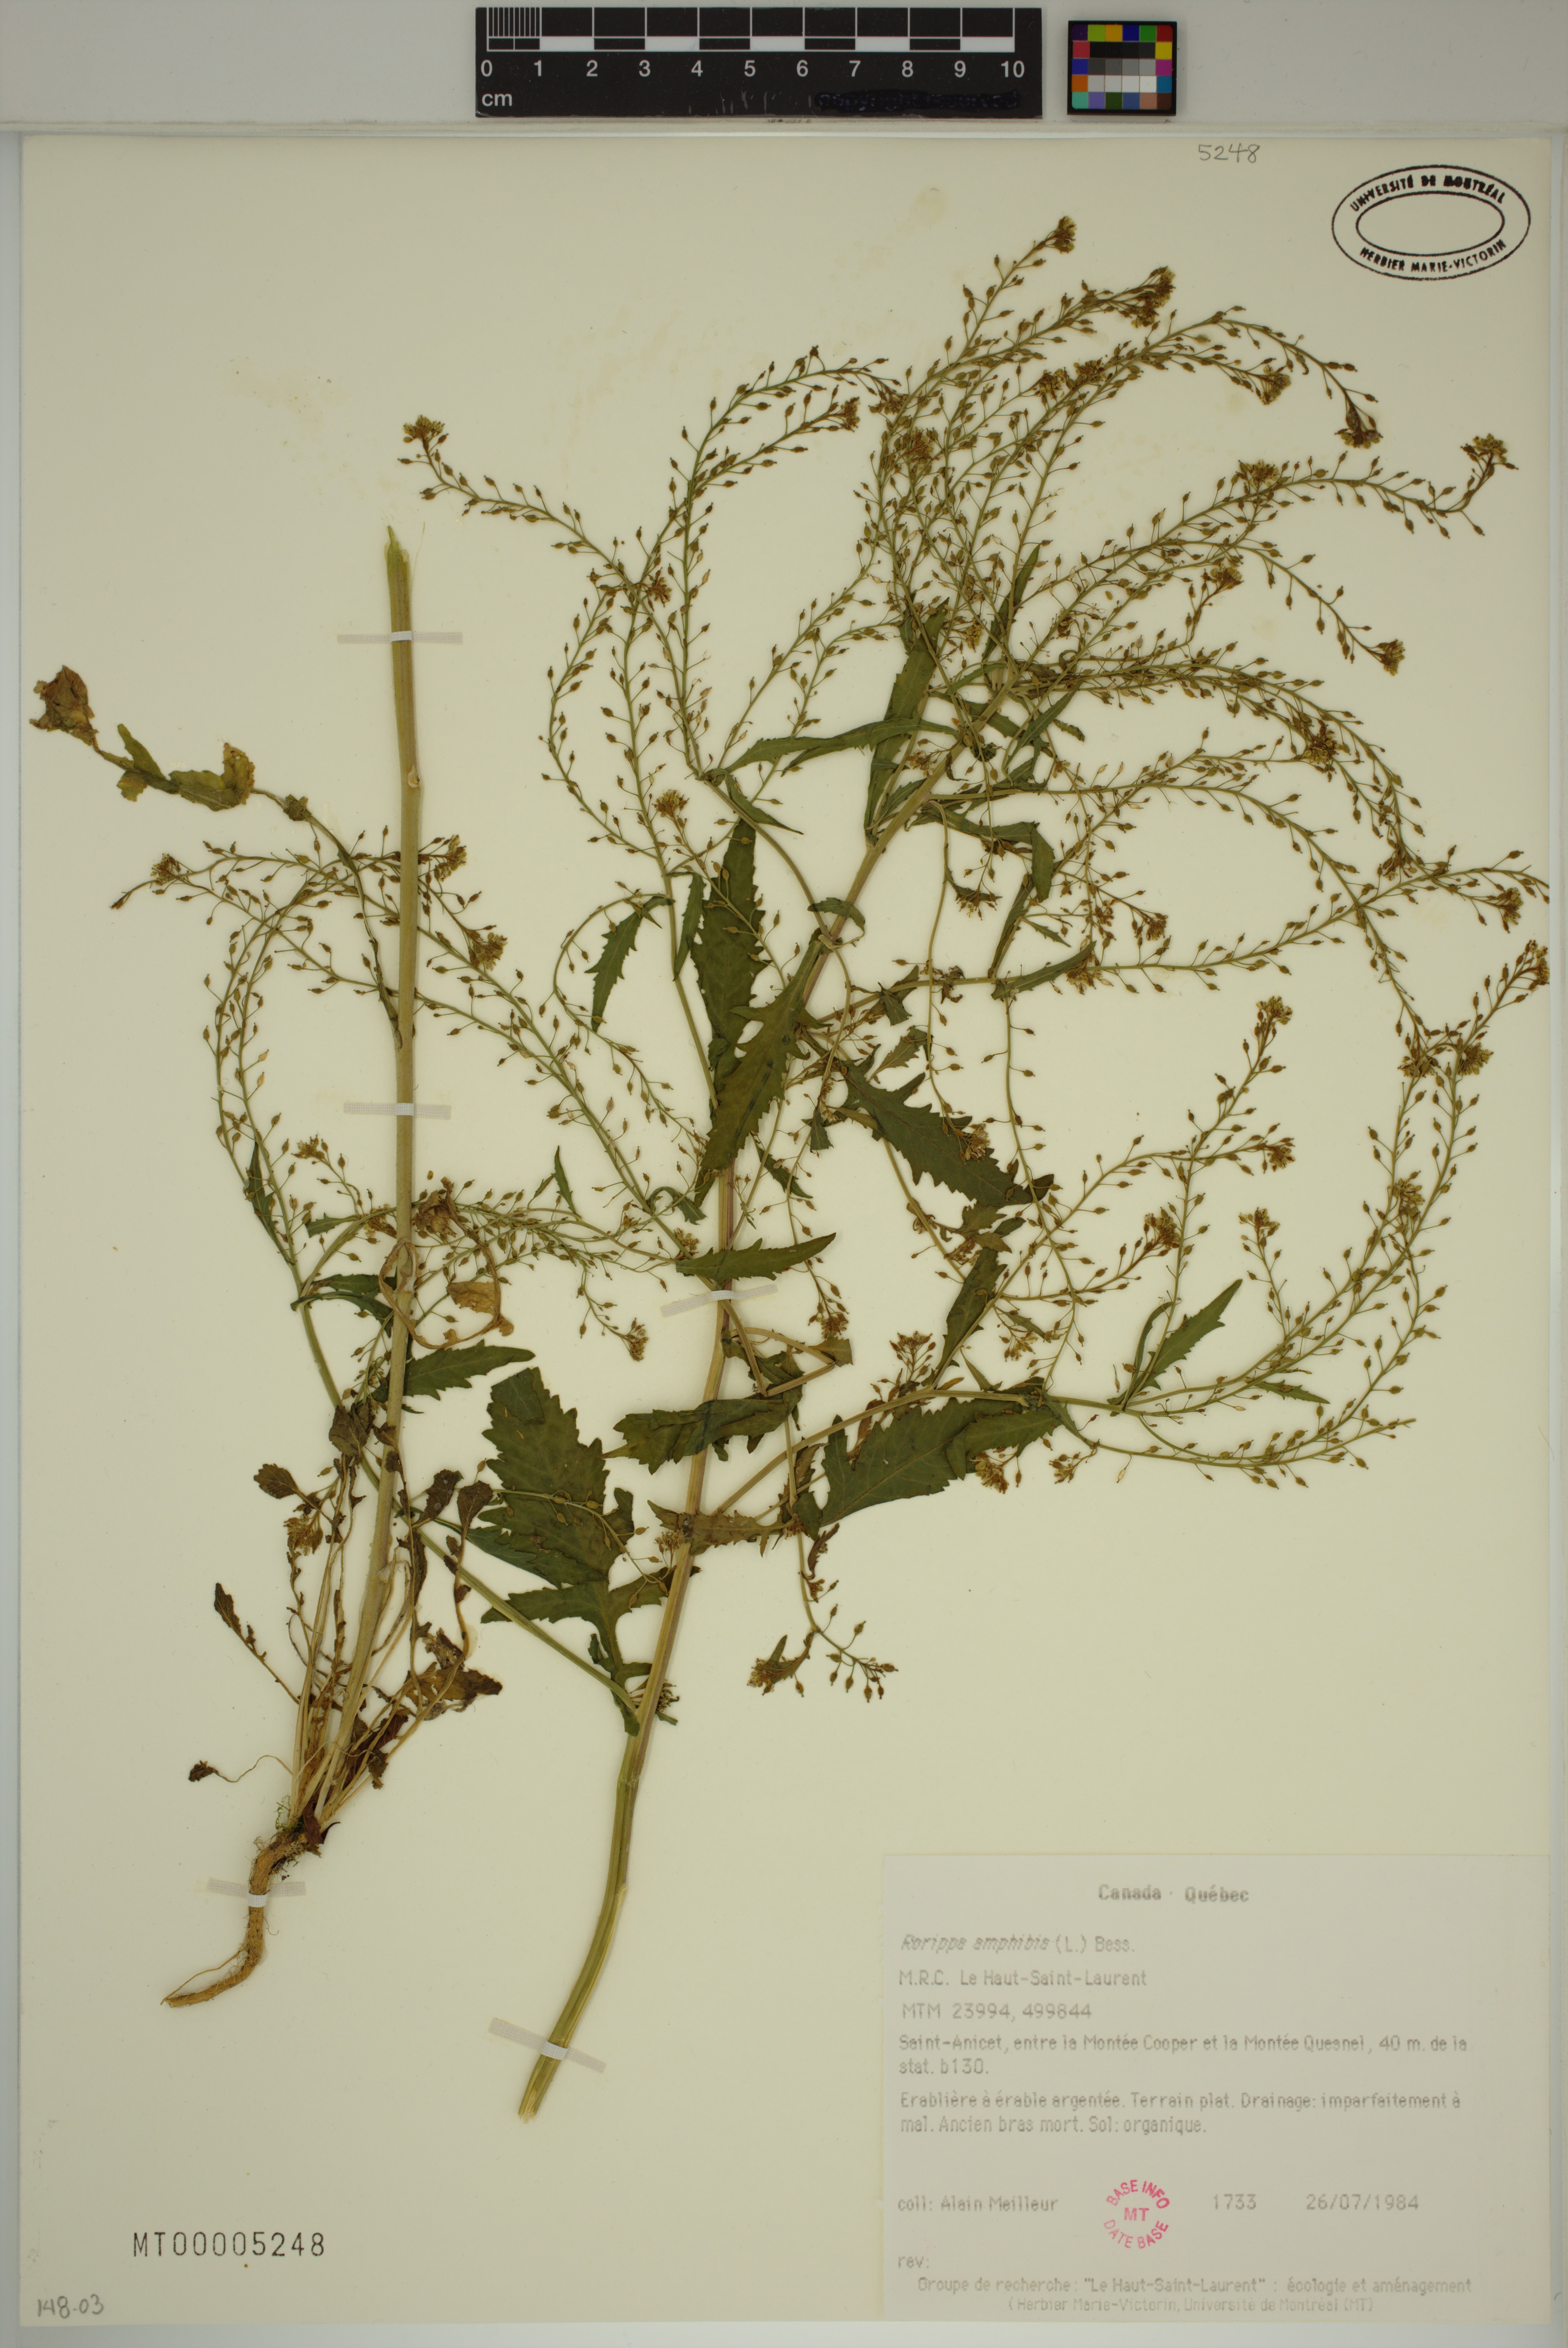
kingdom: Plantae
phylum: Tracheophyta
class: Magnoliopsida
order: Brassicales
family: Brassicaceae
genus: Rorippa
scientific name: Rorippa amphibia
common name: Great yellow-cress
